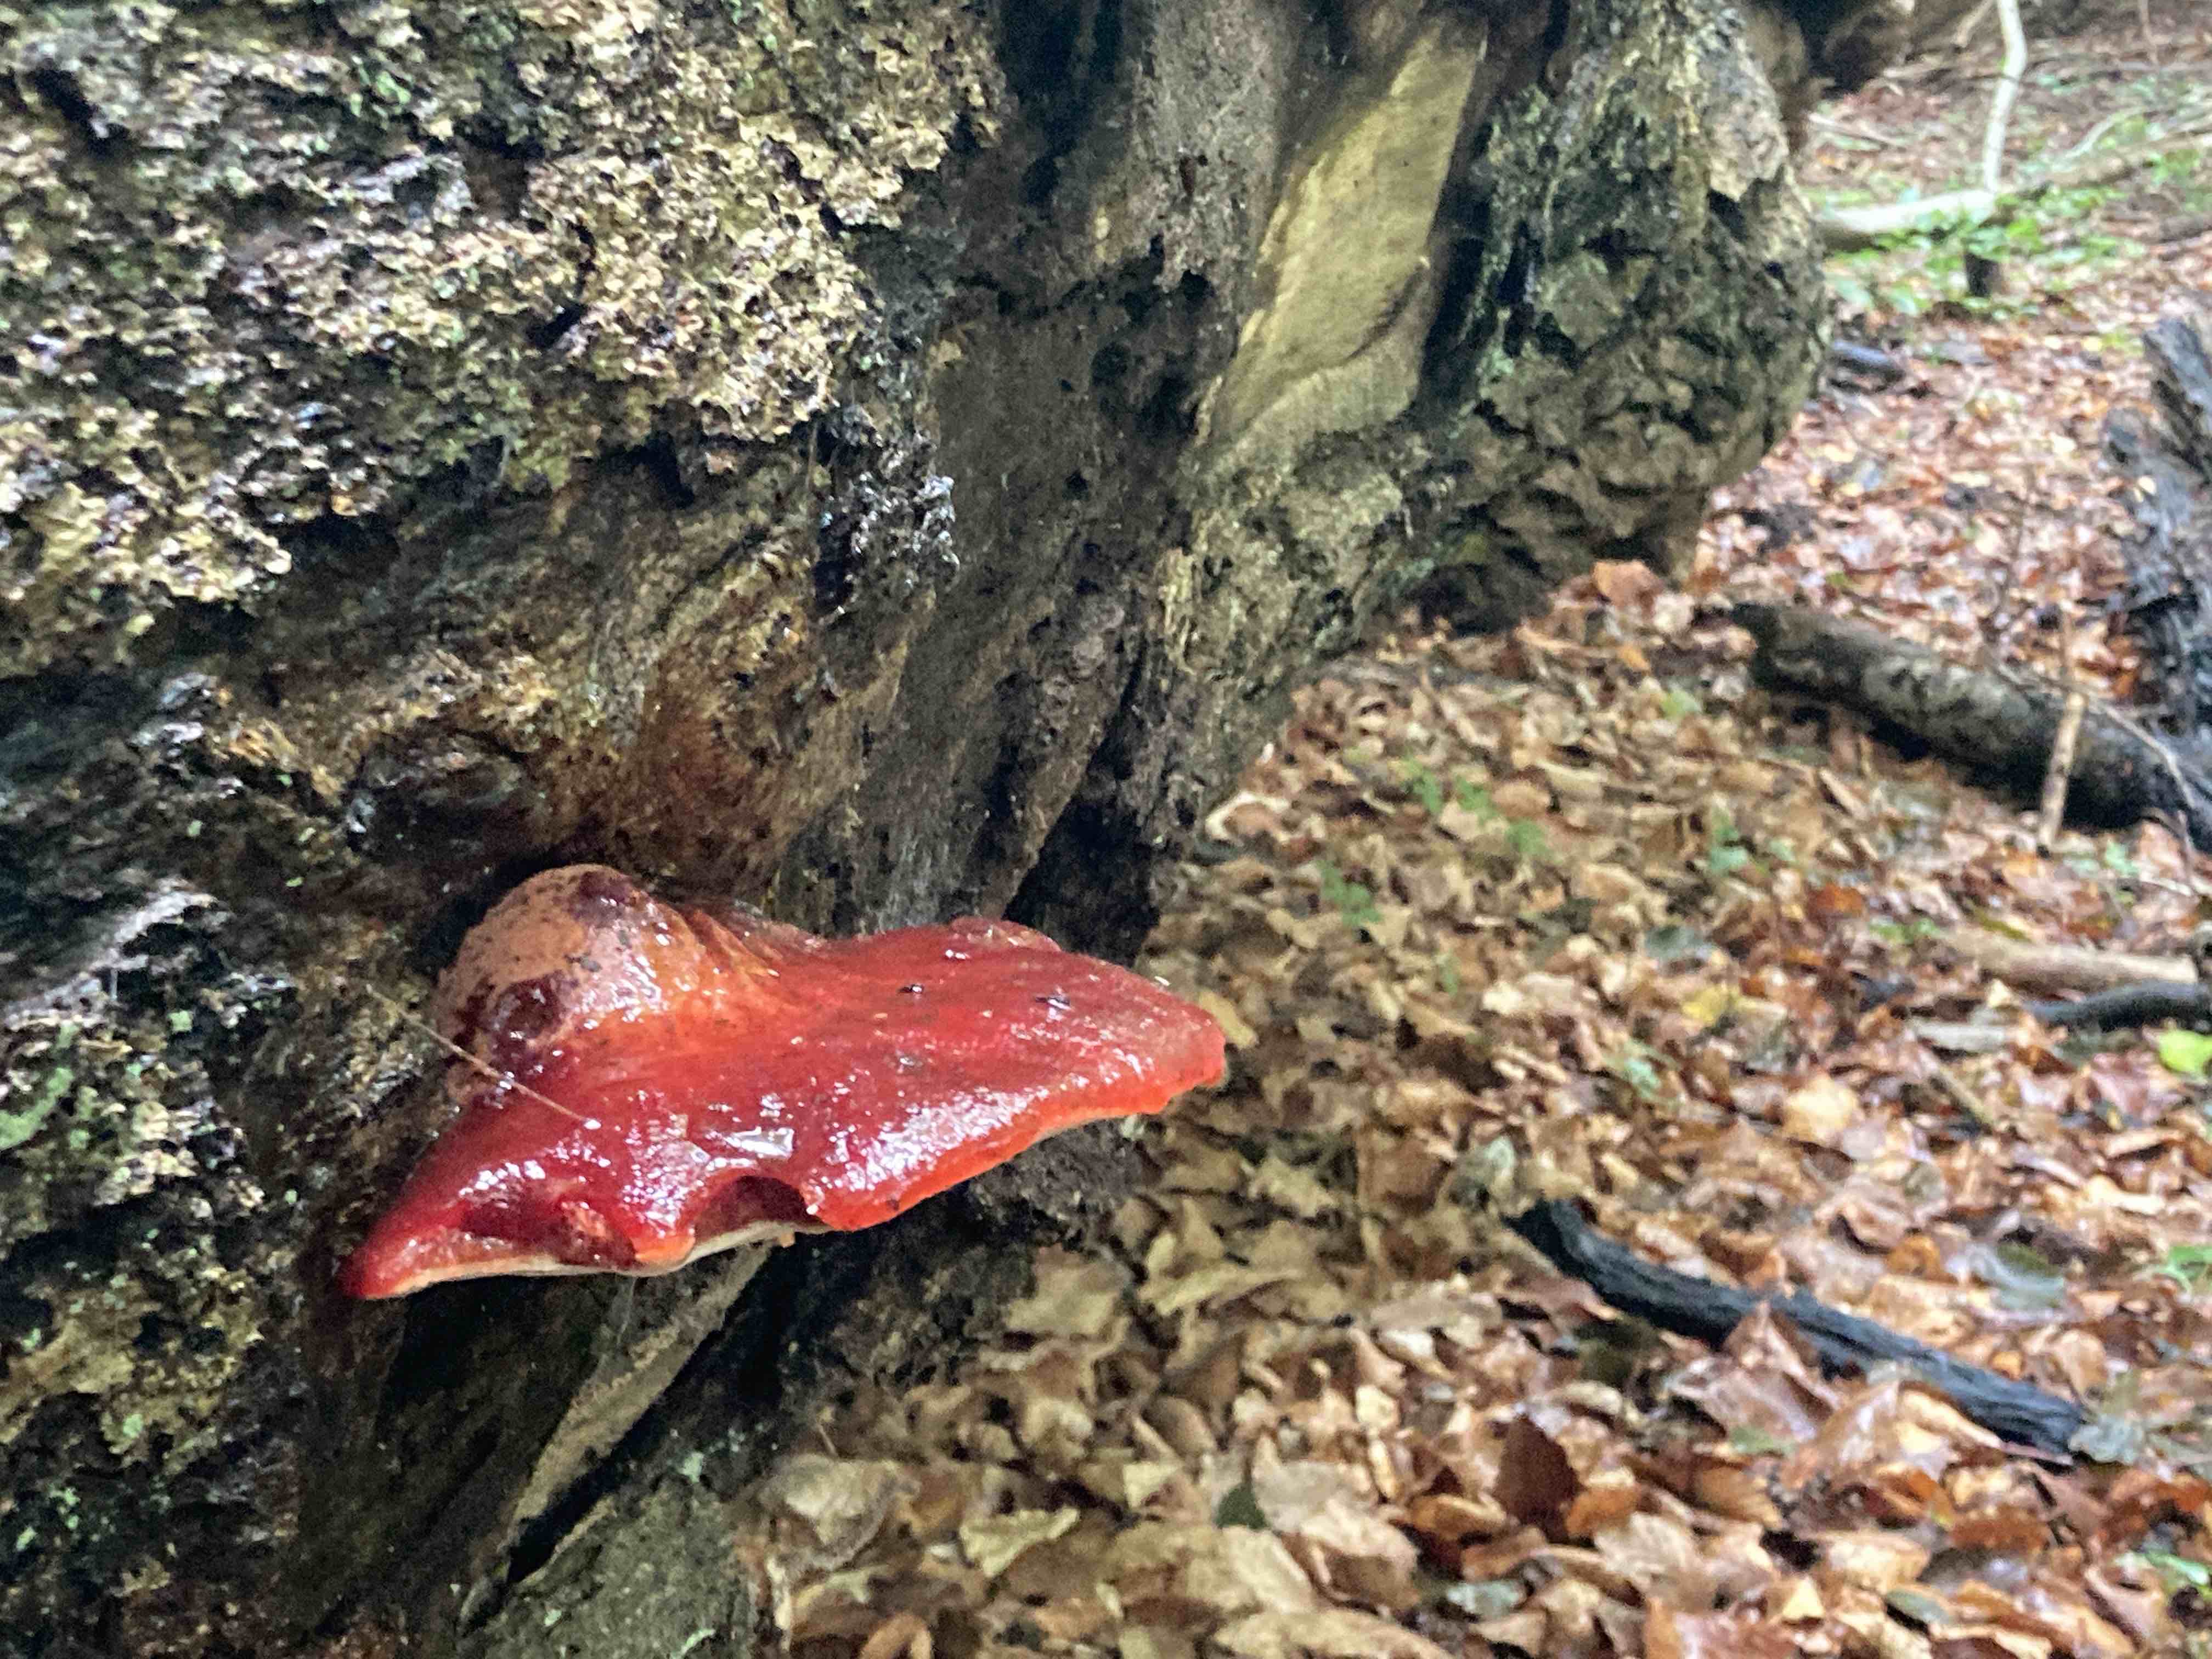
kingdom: Fungi
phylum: Basidiomycota
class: Agaricomycetes
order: Agaricales
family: Fistulinaceae
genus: Fistulina
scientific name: Fistulina hepatica
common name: oksetunge
